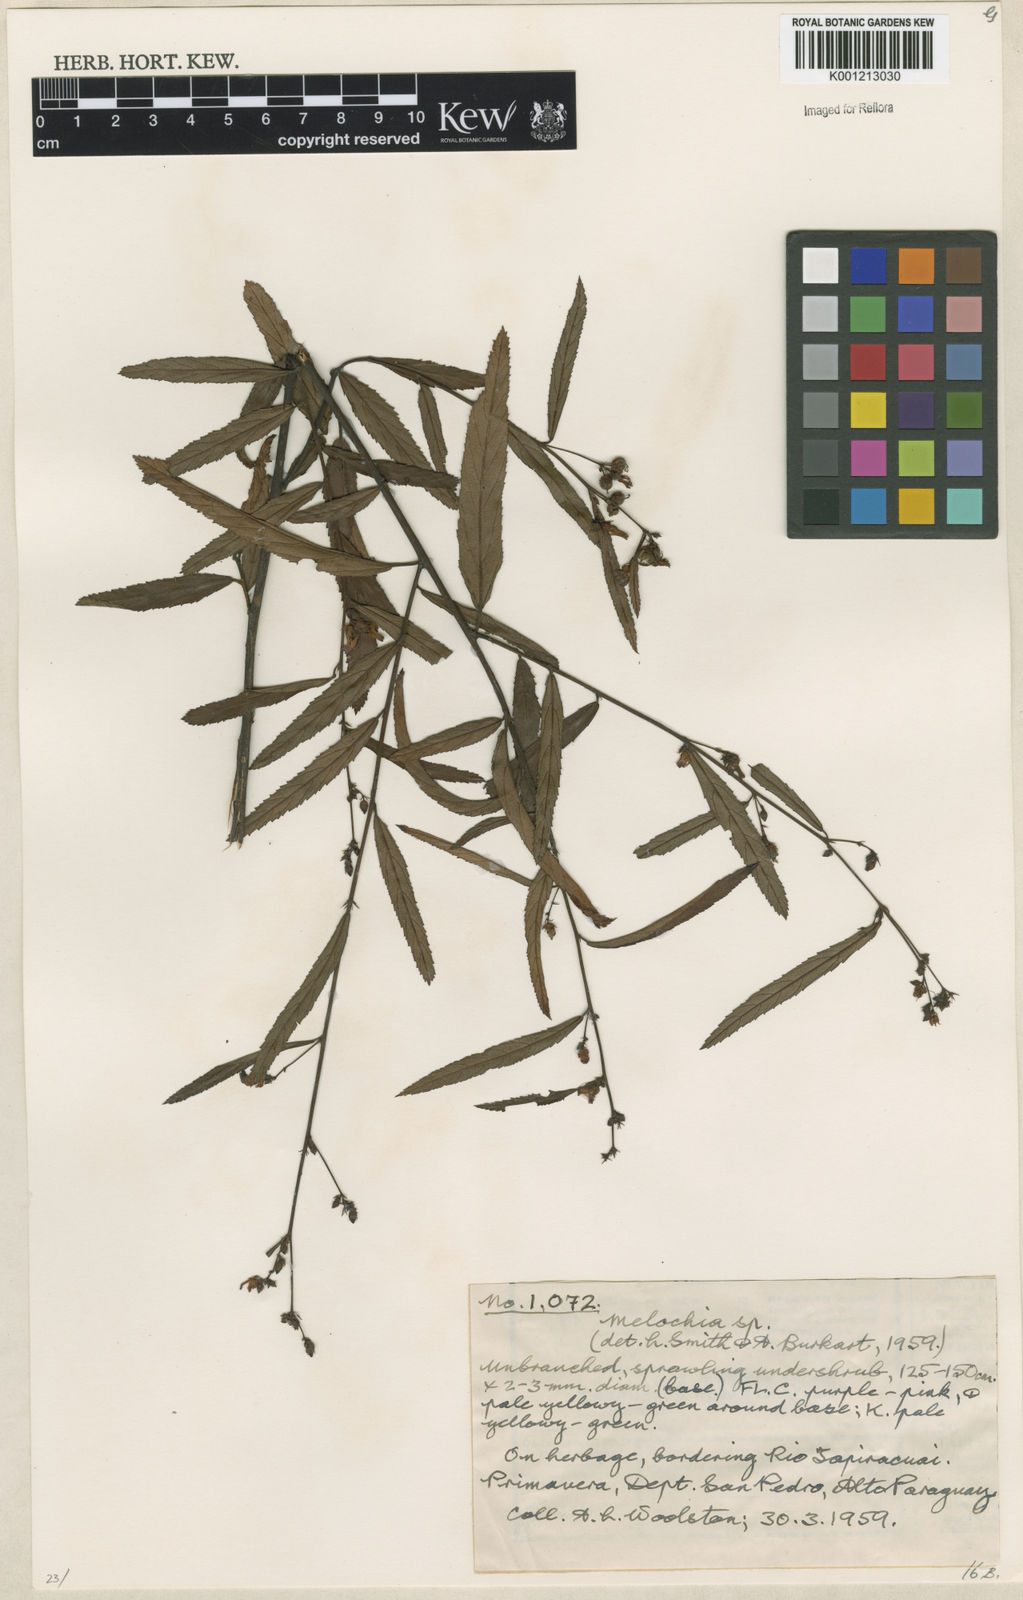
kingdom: Plantae
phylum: Tracheophyta
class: Magnoliopsida
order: Malvales
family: Malvaceae
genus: Melochia
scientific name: Melochia
